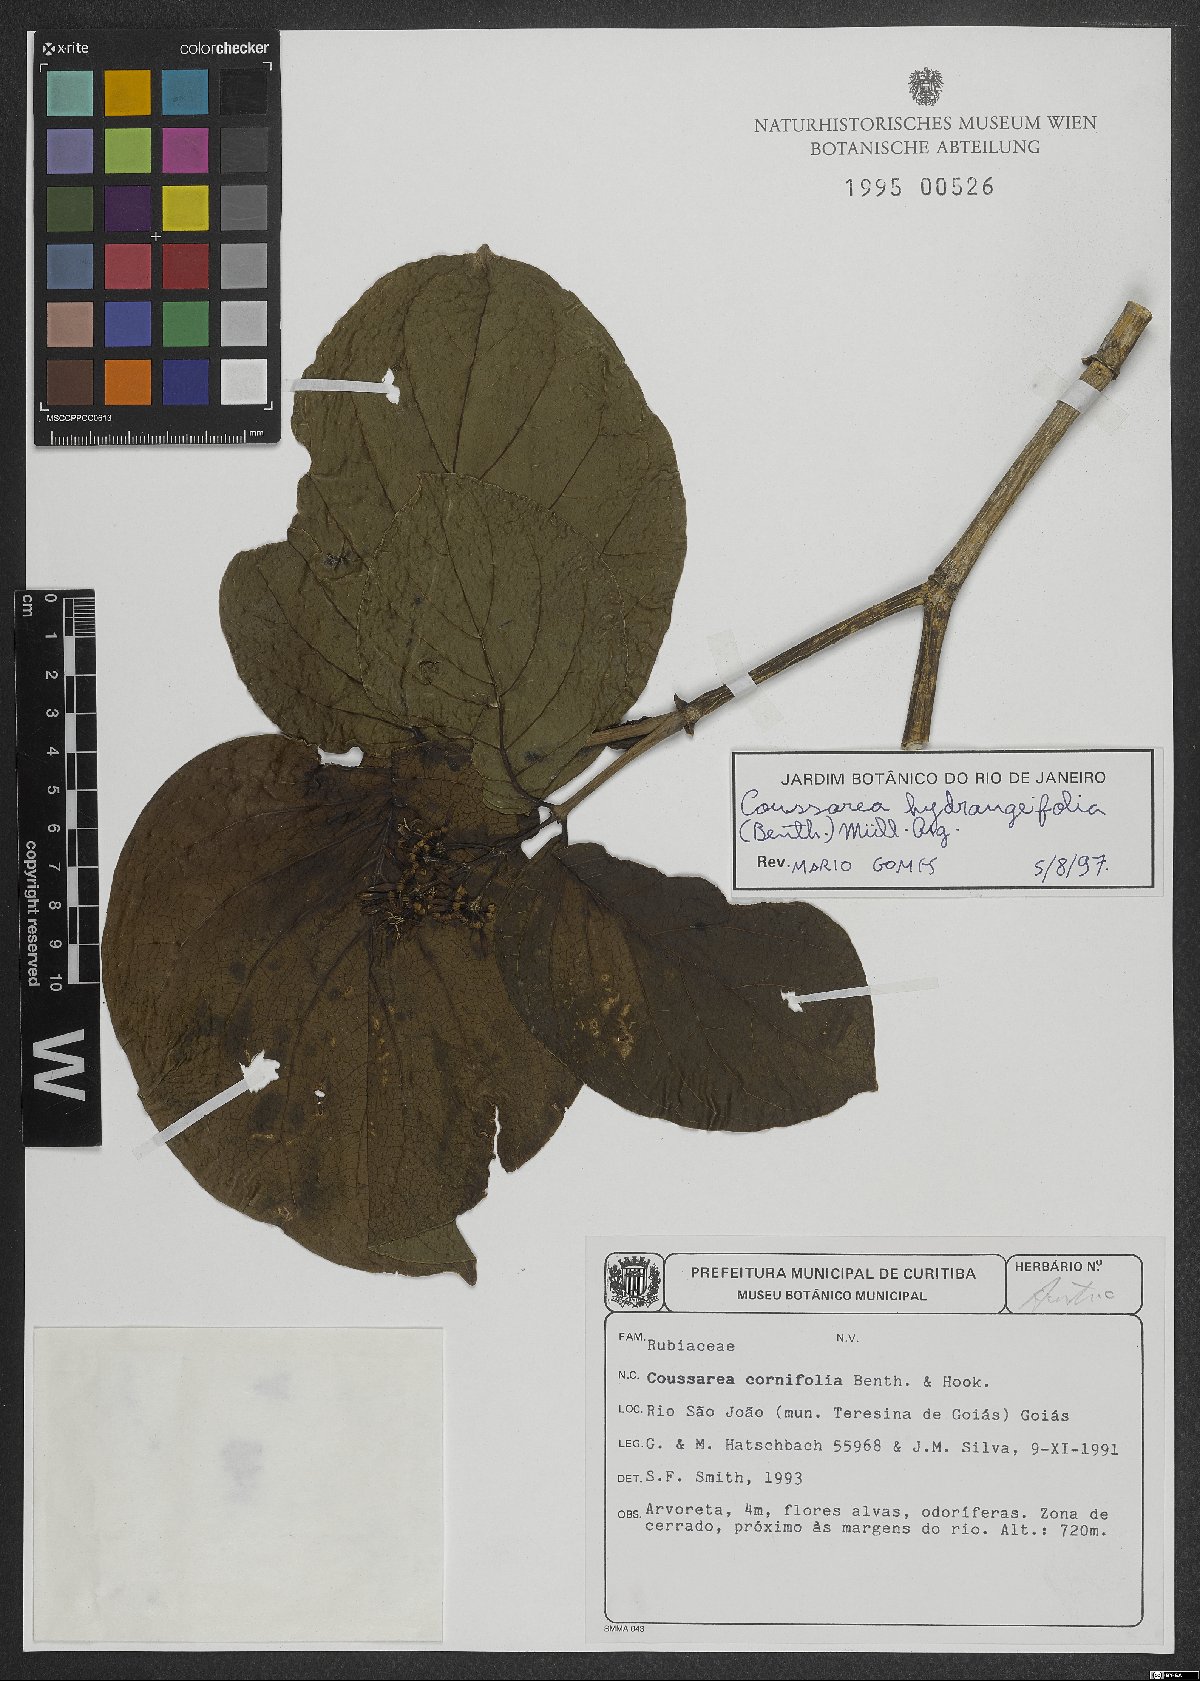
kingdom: Plantae
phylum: Tracheophyta
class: Magnoliopsida
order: Gentianales
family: Rubiaceae
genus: Coussarea
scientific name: Coussarea hydrangeifolia
